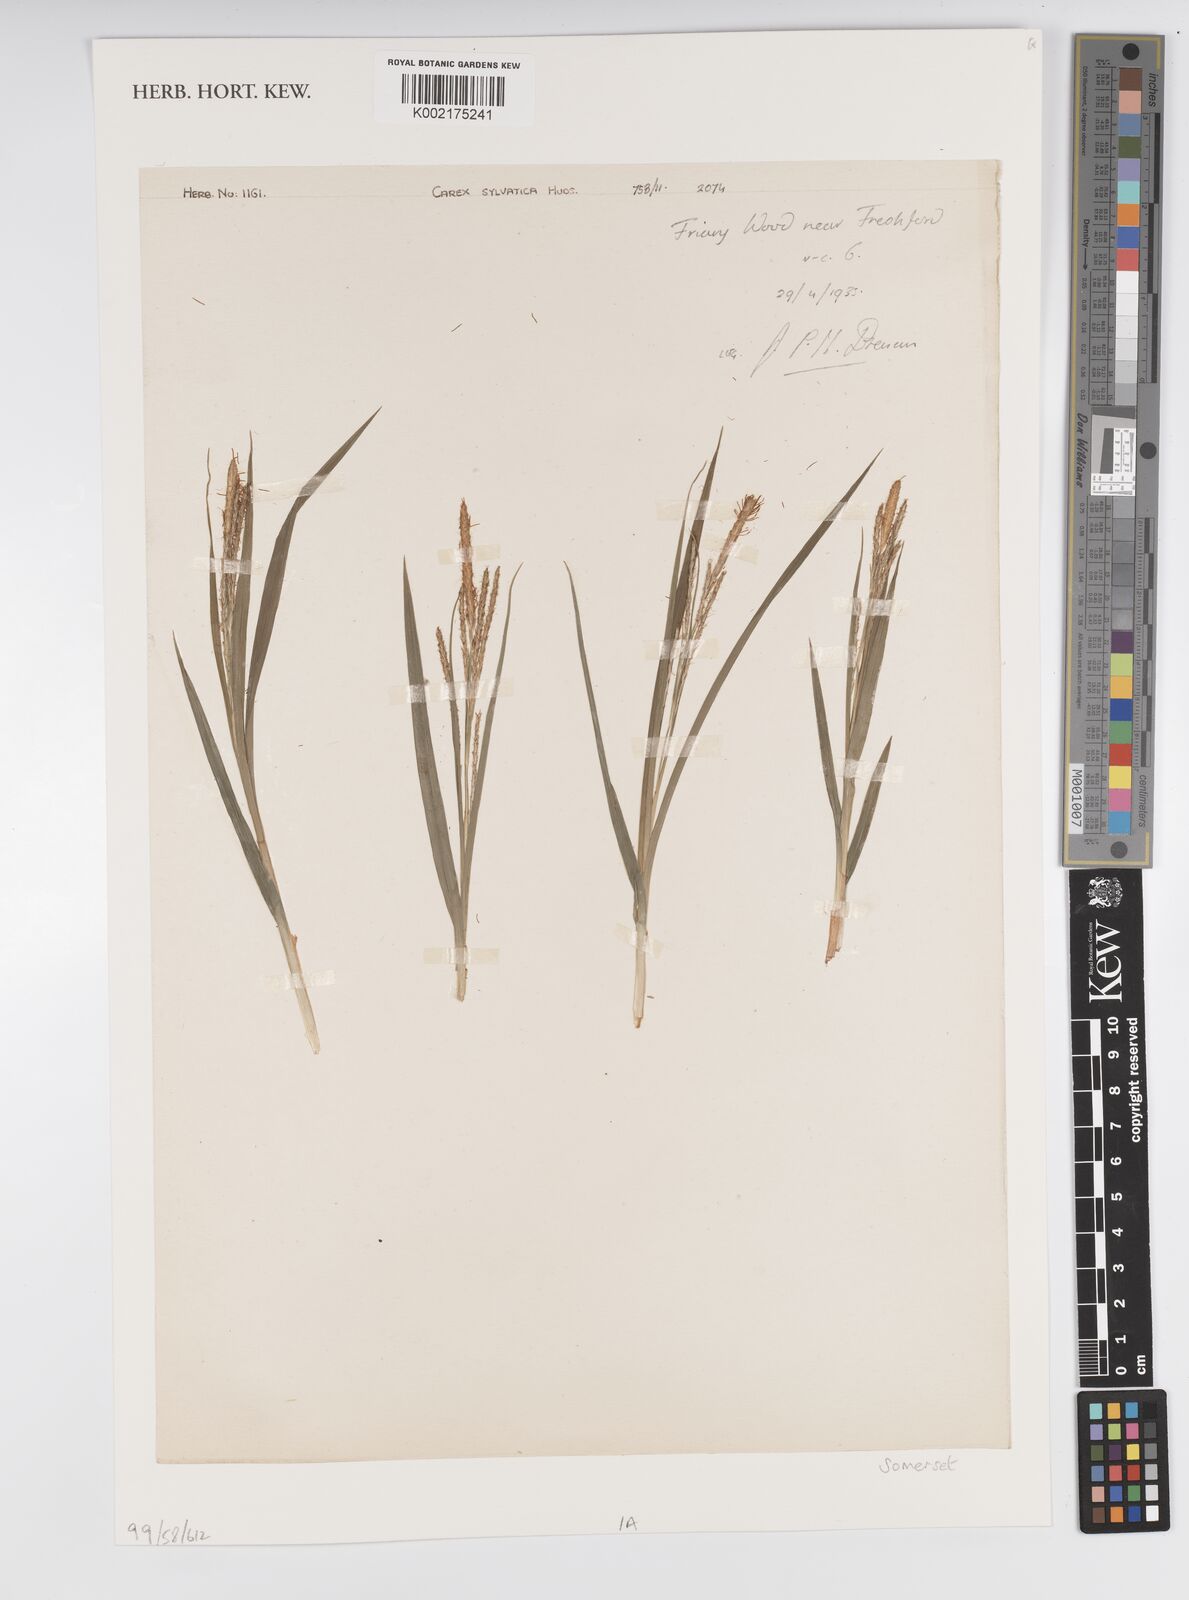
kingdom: Plantae
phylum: Tracheophyta
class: Liliopsida
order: Poales
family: Cyperaceae
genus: Carex
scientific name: Carex sylvatica
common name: Wood-sedge
